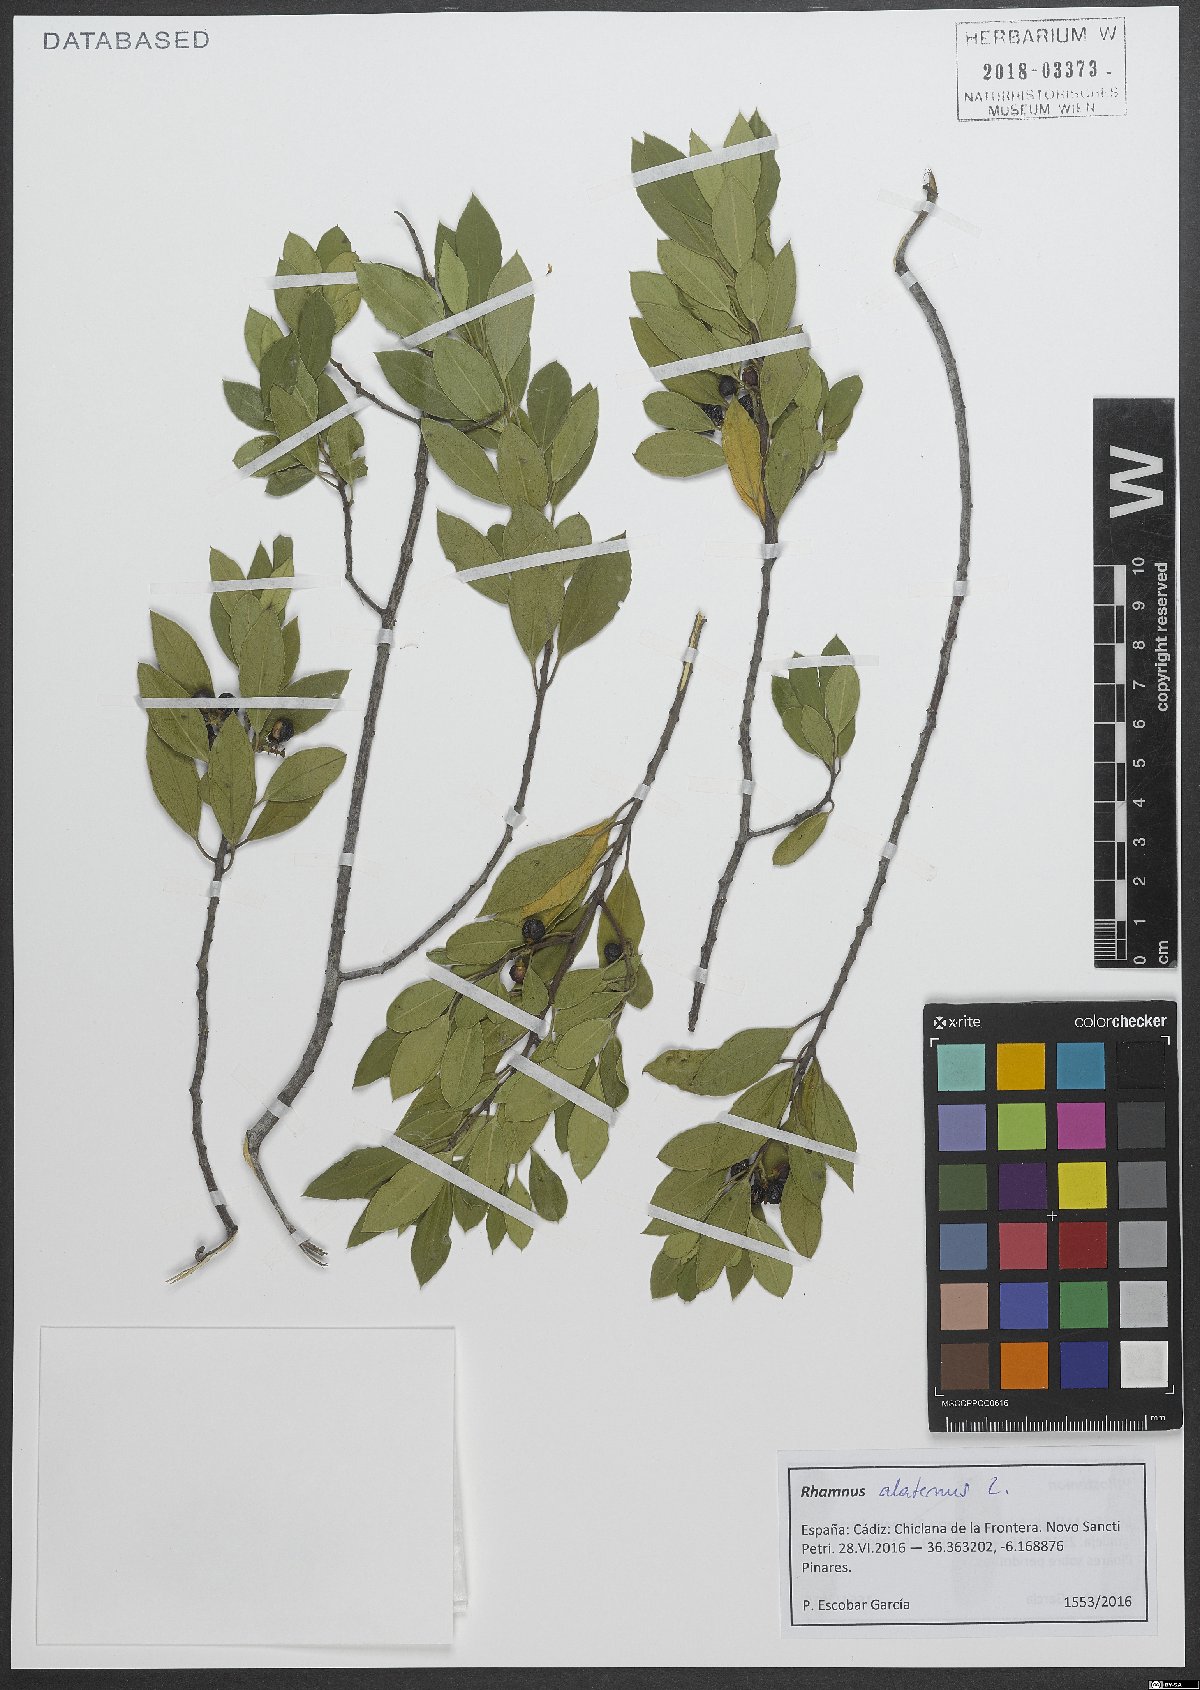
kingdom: Plantae
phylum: Tracheophyta
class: Magnoliopsida
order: Rosales
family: Rhamnaceae
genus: Rhamnus
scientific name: Rhamnus alaternus
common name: Mediterranean buckthorn
